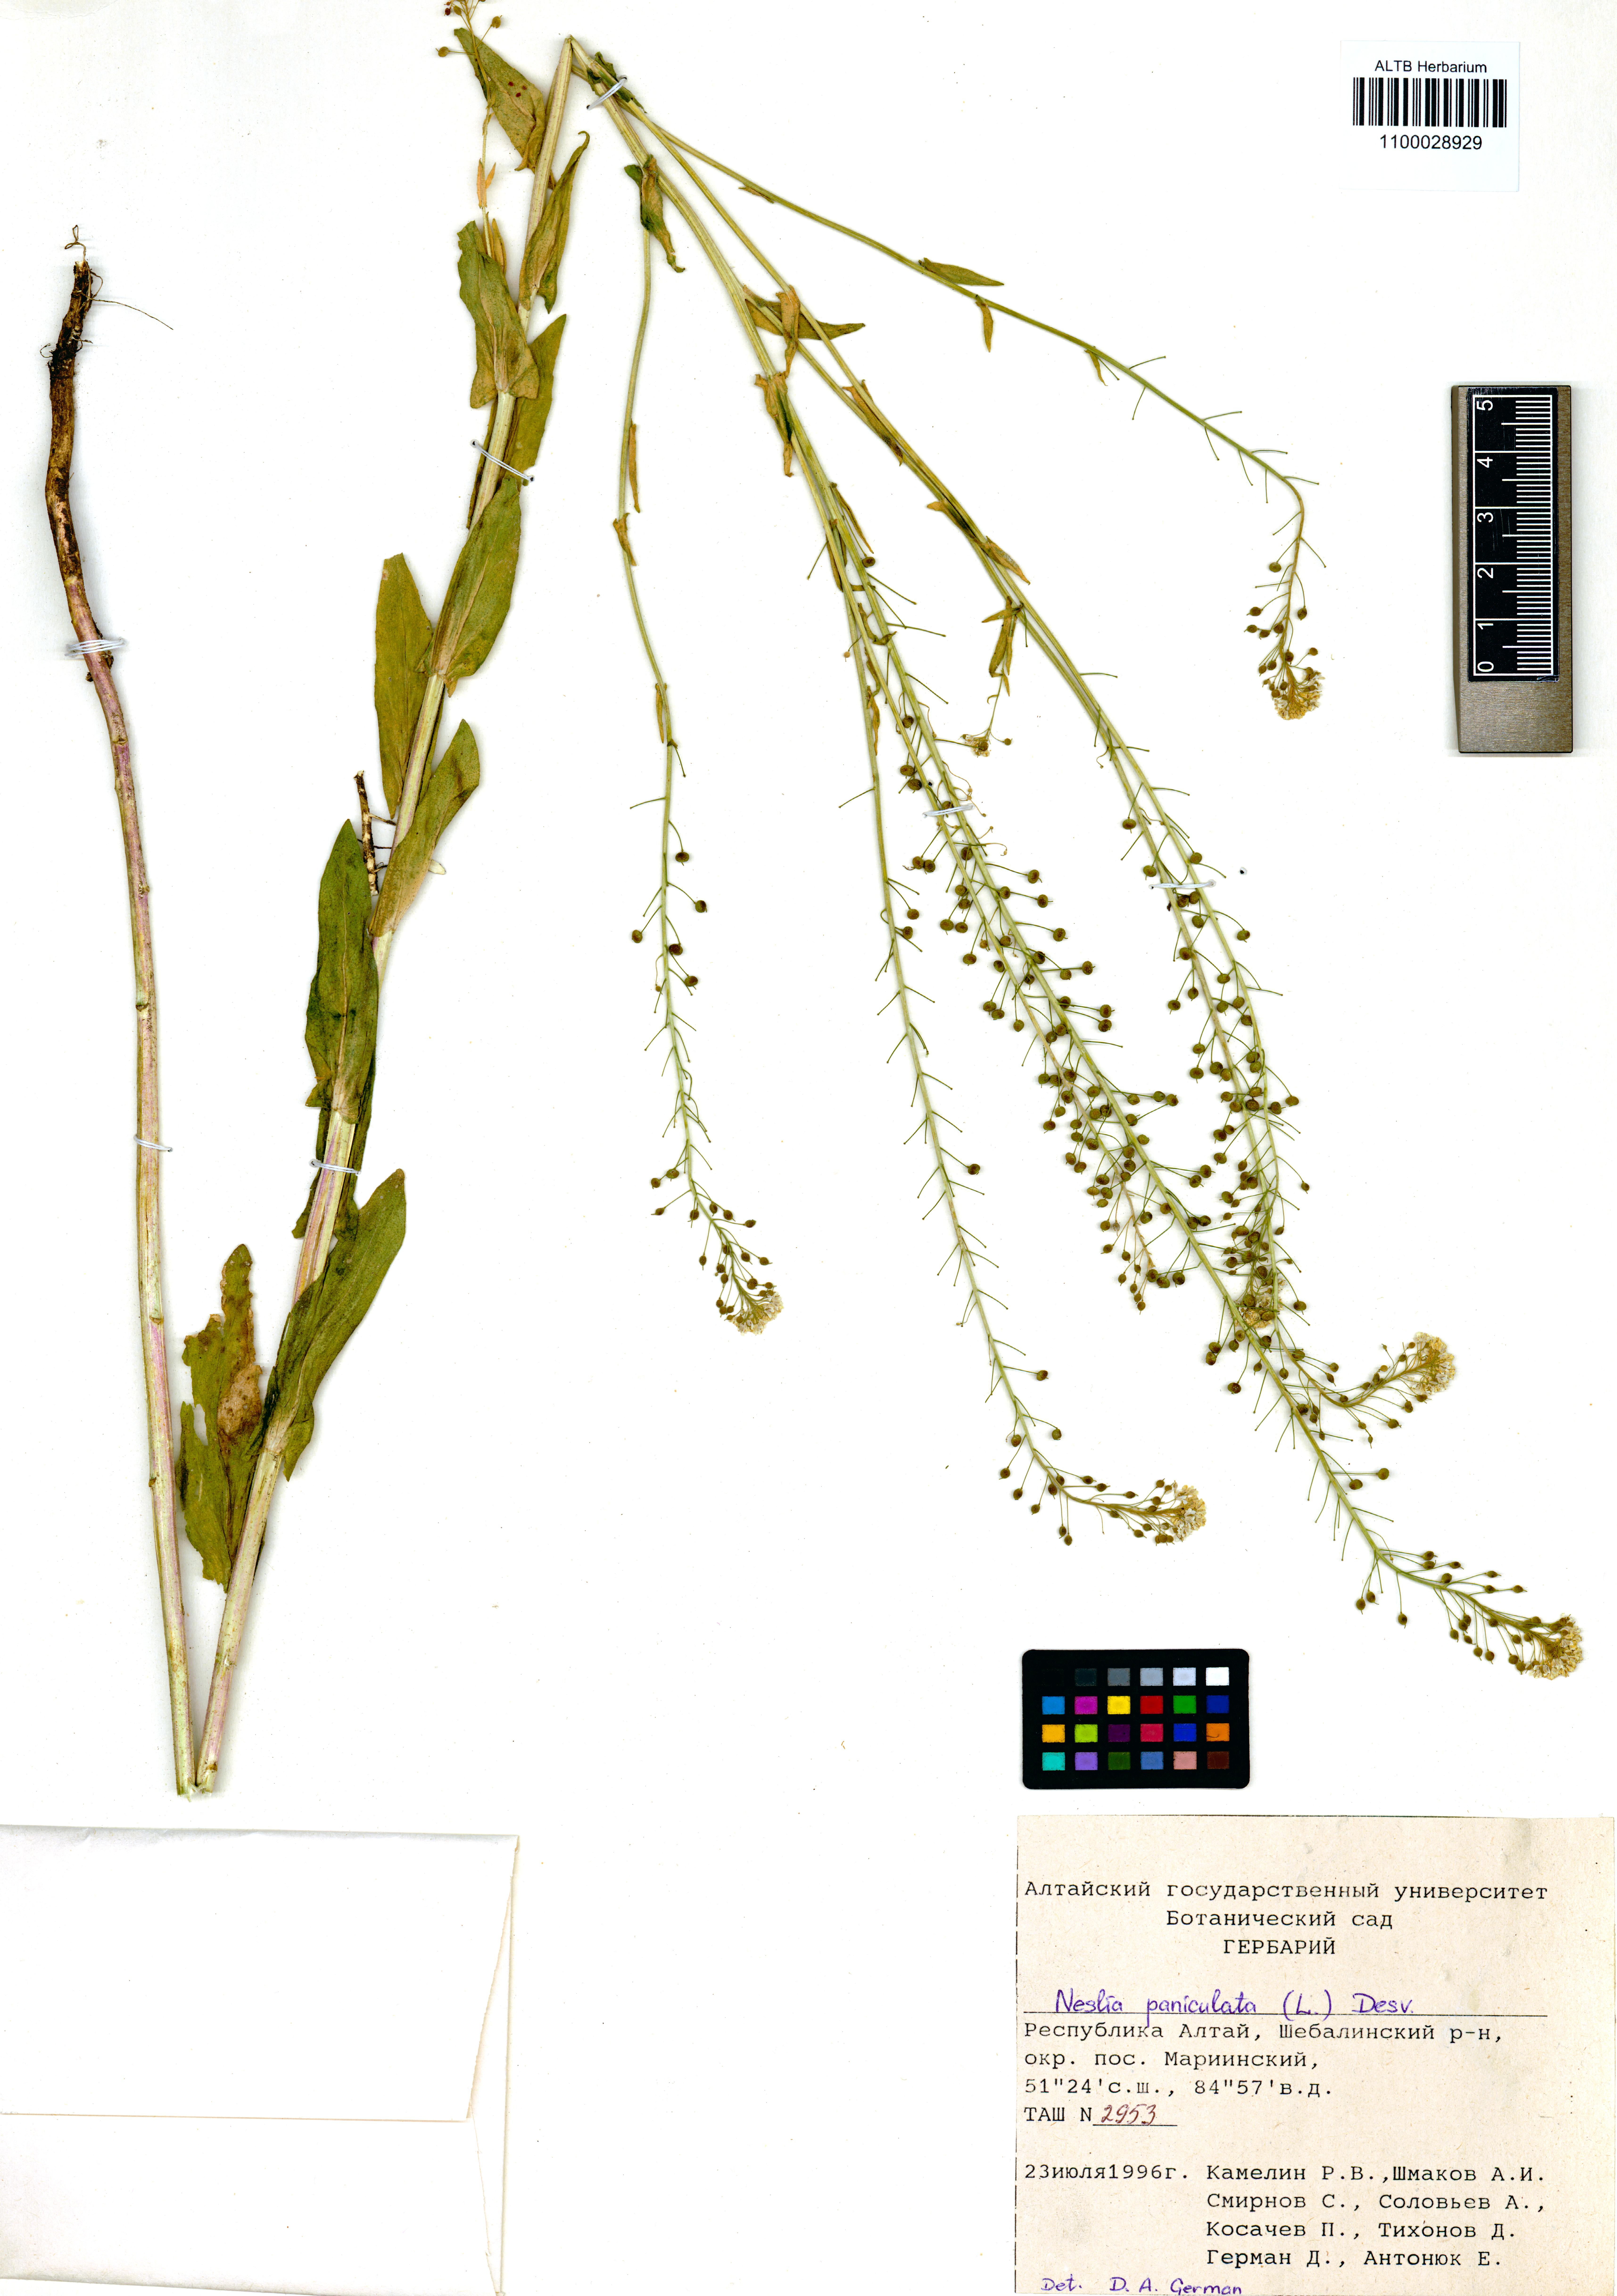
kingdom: Plantae
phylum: Tracheophyta
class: Magnoliopsida
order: Brassicales
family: Brassicaceae
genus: Neslia
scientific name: Neslia paniculata
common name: Ball mustard
